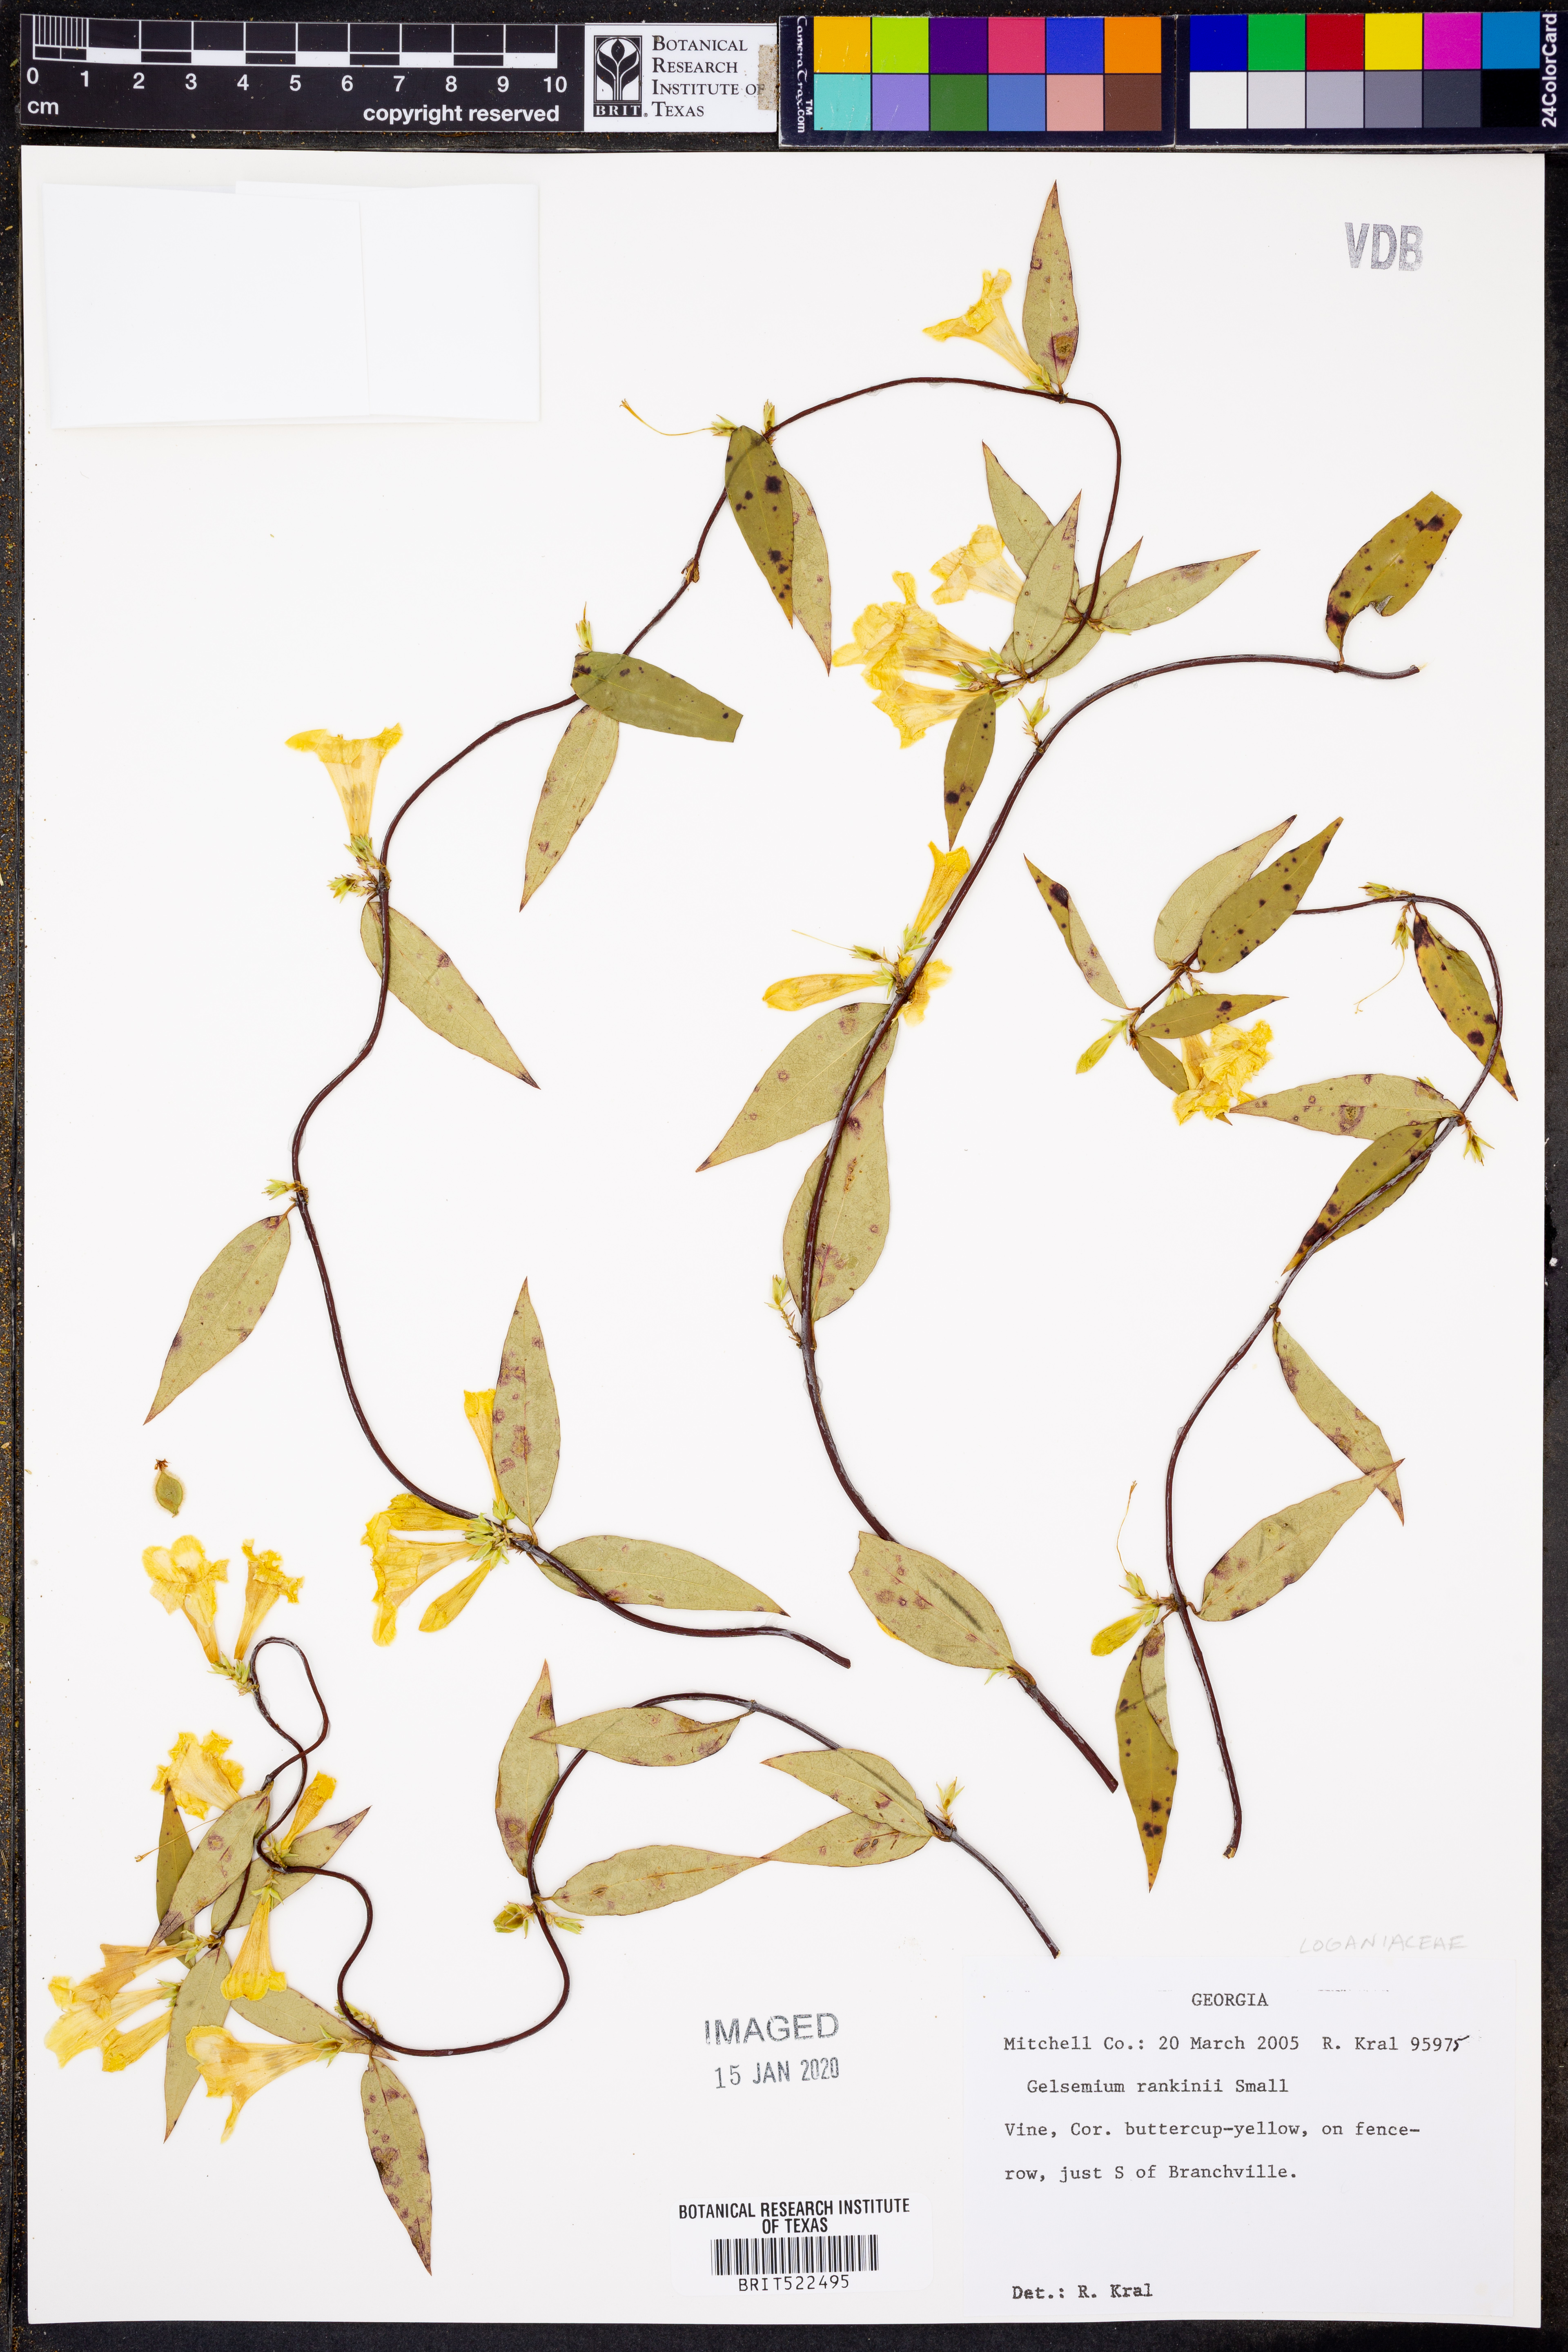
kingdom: Plantae
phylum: Tracheophyta
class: Magnoliopsida
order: Gentianales
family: Gelsemiaceae
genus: Gelsemium
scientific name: Gelsemium rankinii
